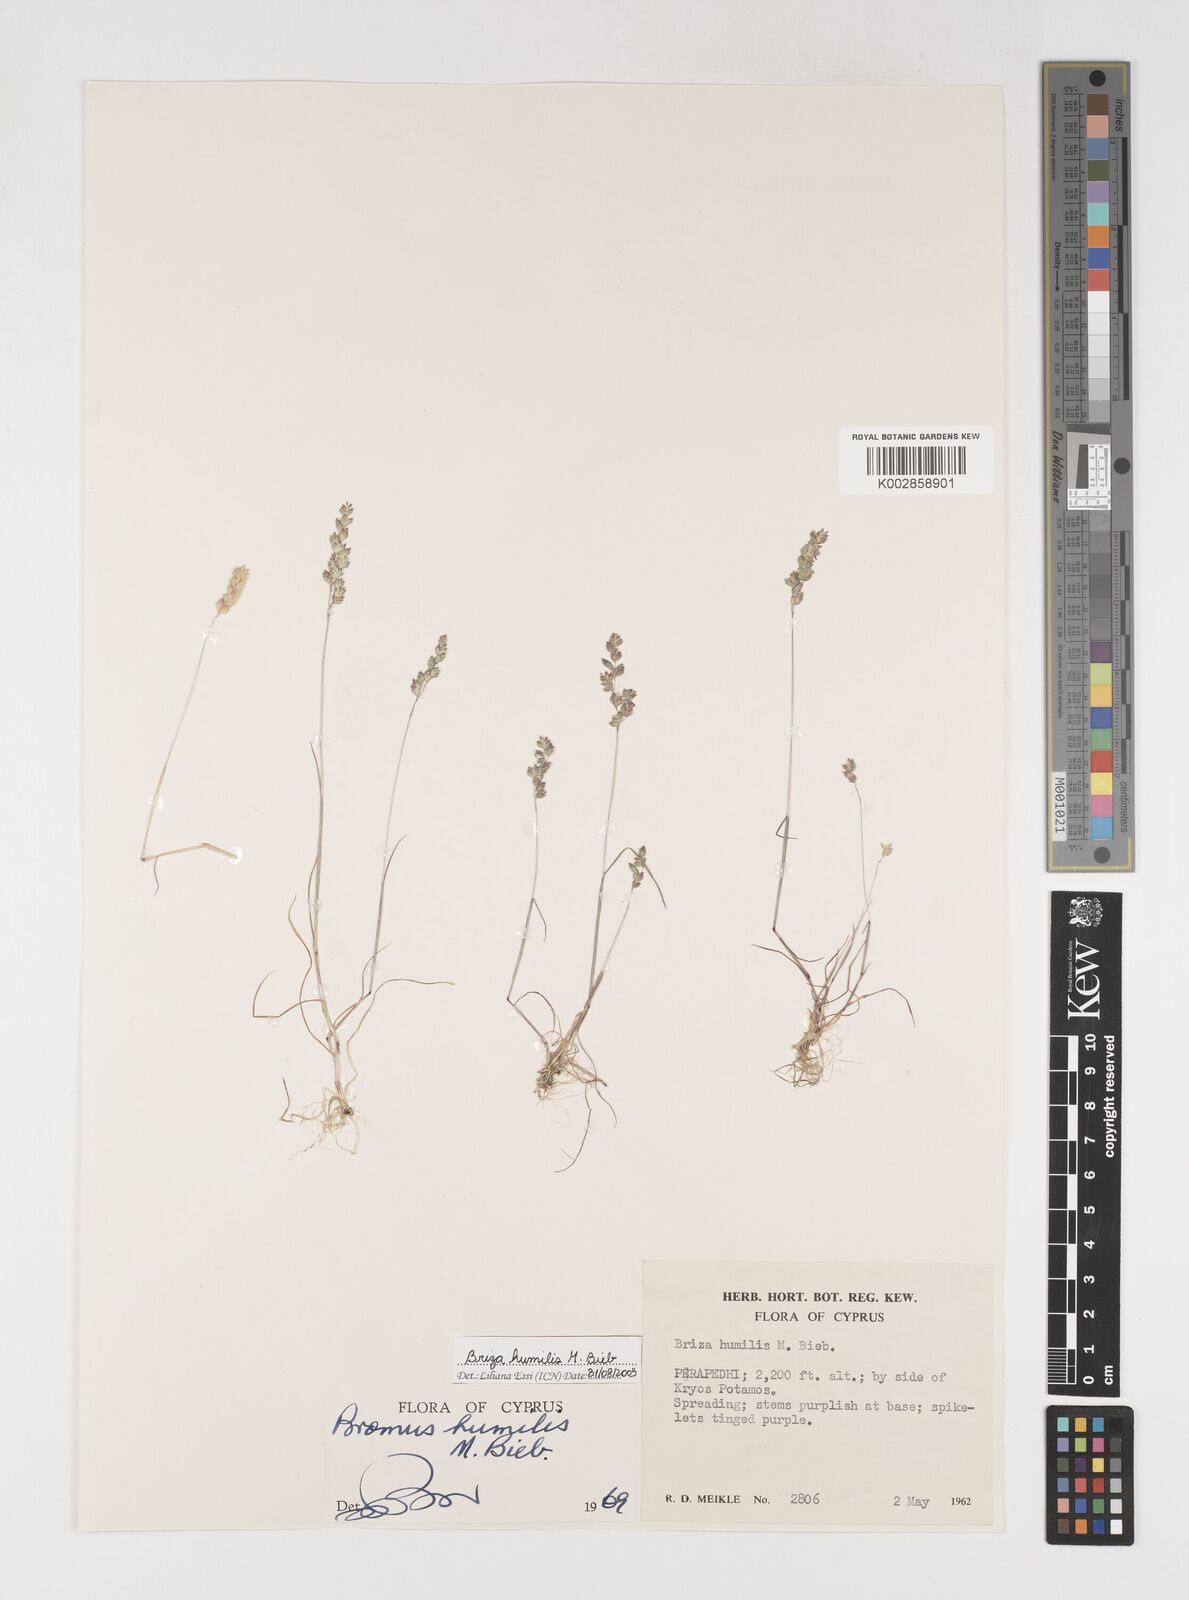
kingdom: Plantae
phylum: Tracheophyta
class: Liliopsida
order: Poales
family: Poaceae
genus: Briza
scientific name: Briza humilis
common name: Spiked quaking grass
